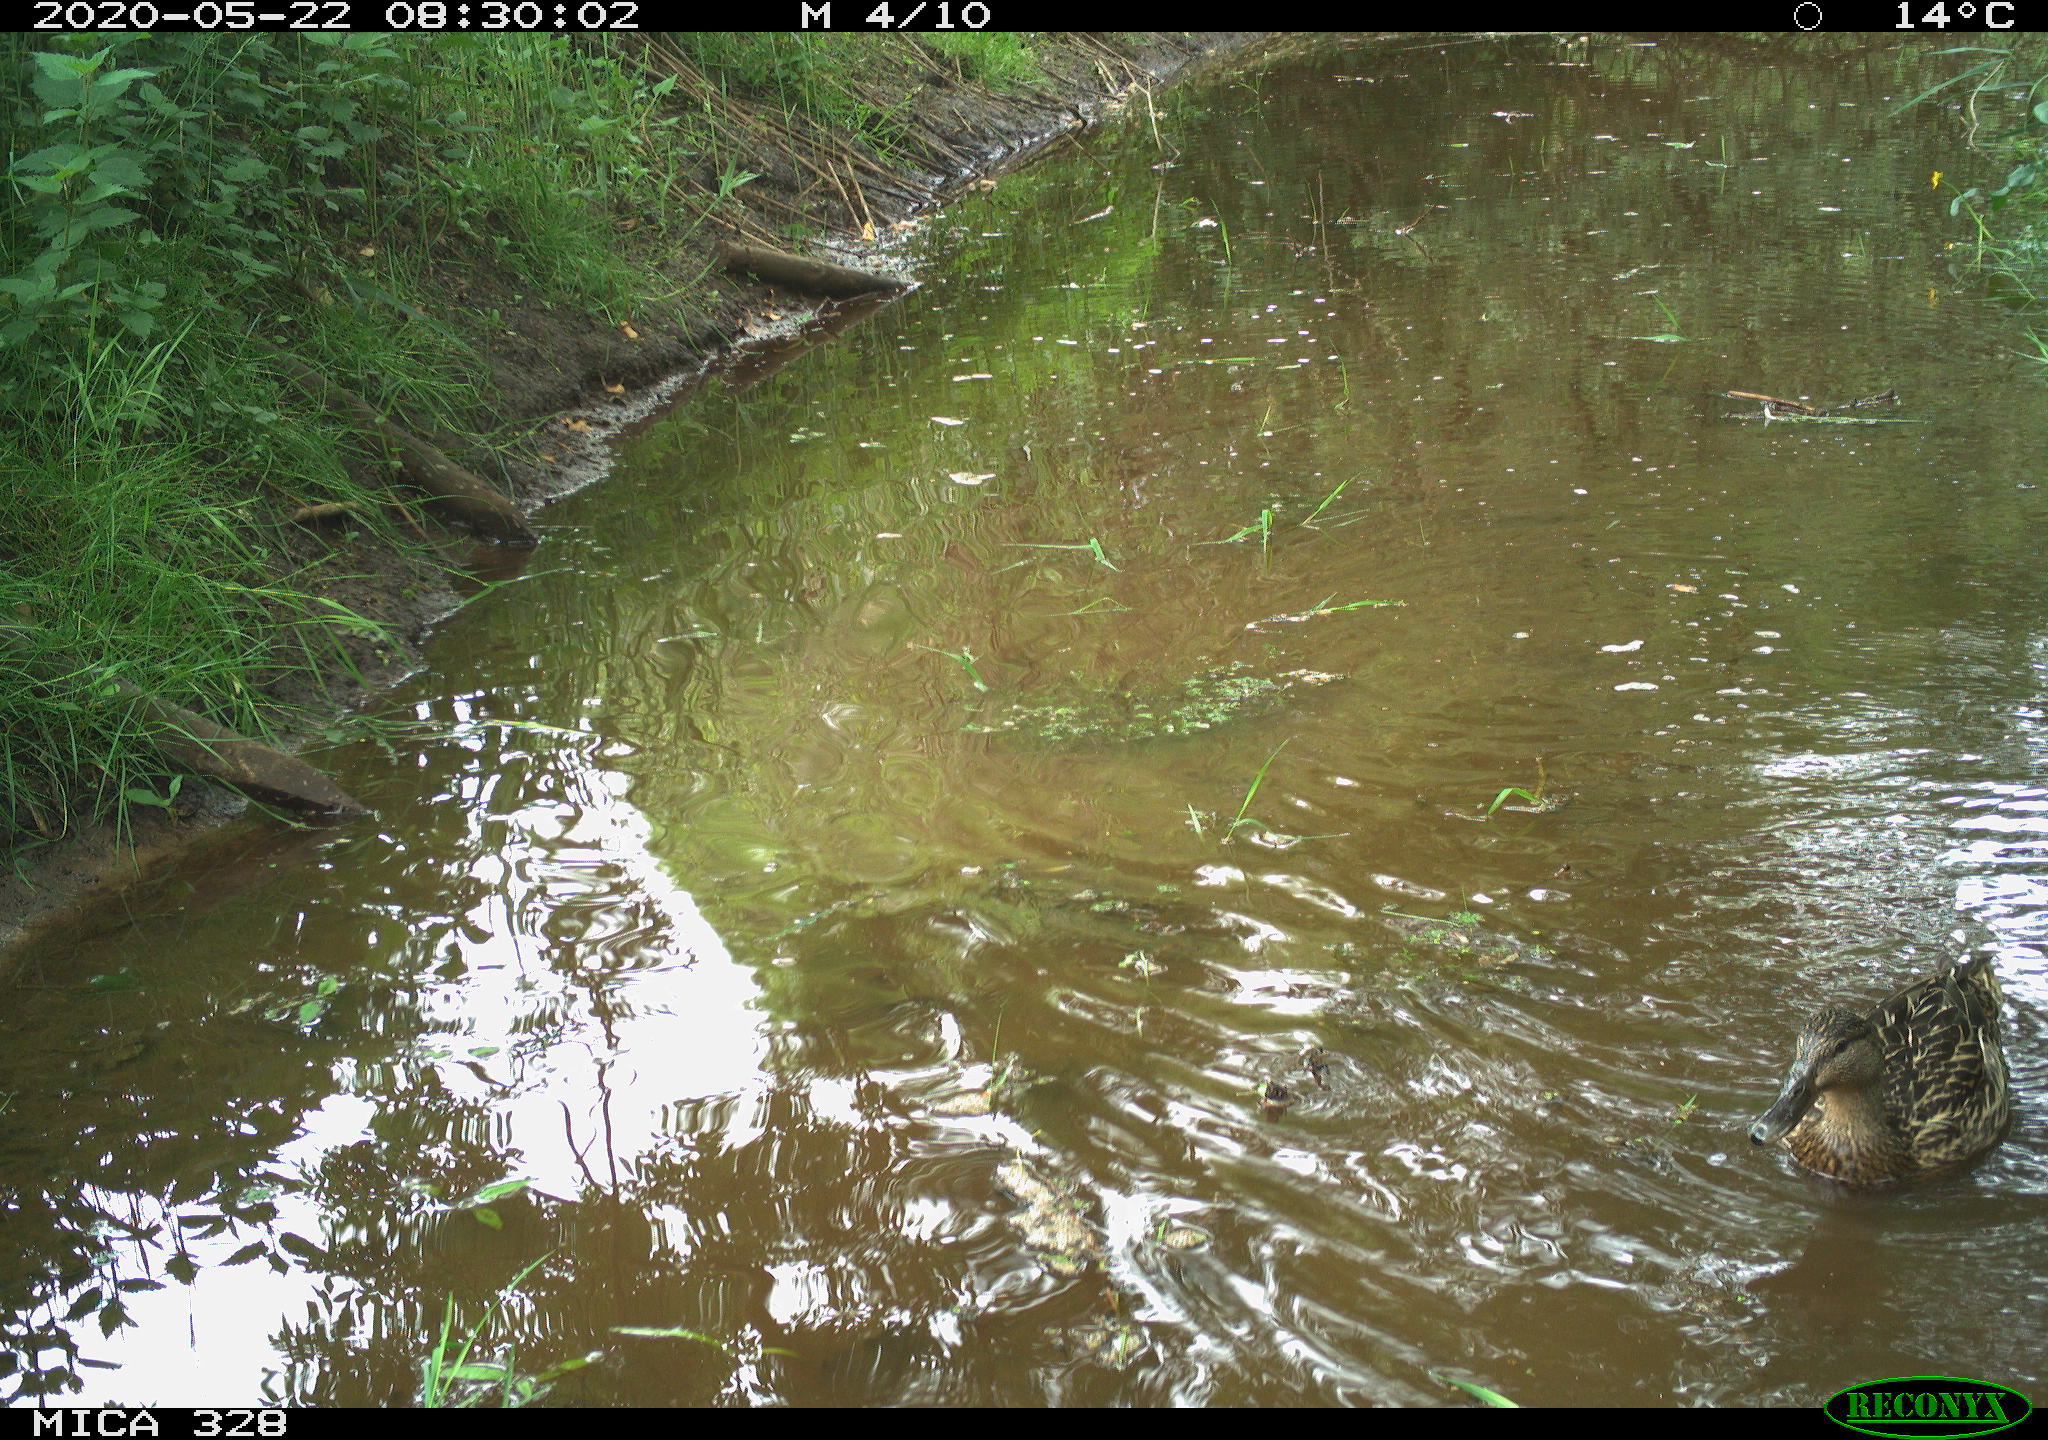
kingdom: Animalia
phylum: Chordata
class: Aves
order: Anseriformes
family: Anatidae
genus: Anas
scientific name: Anas platyrhynchos
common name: Mallard
